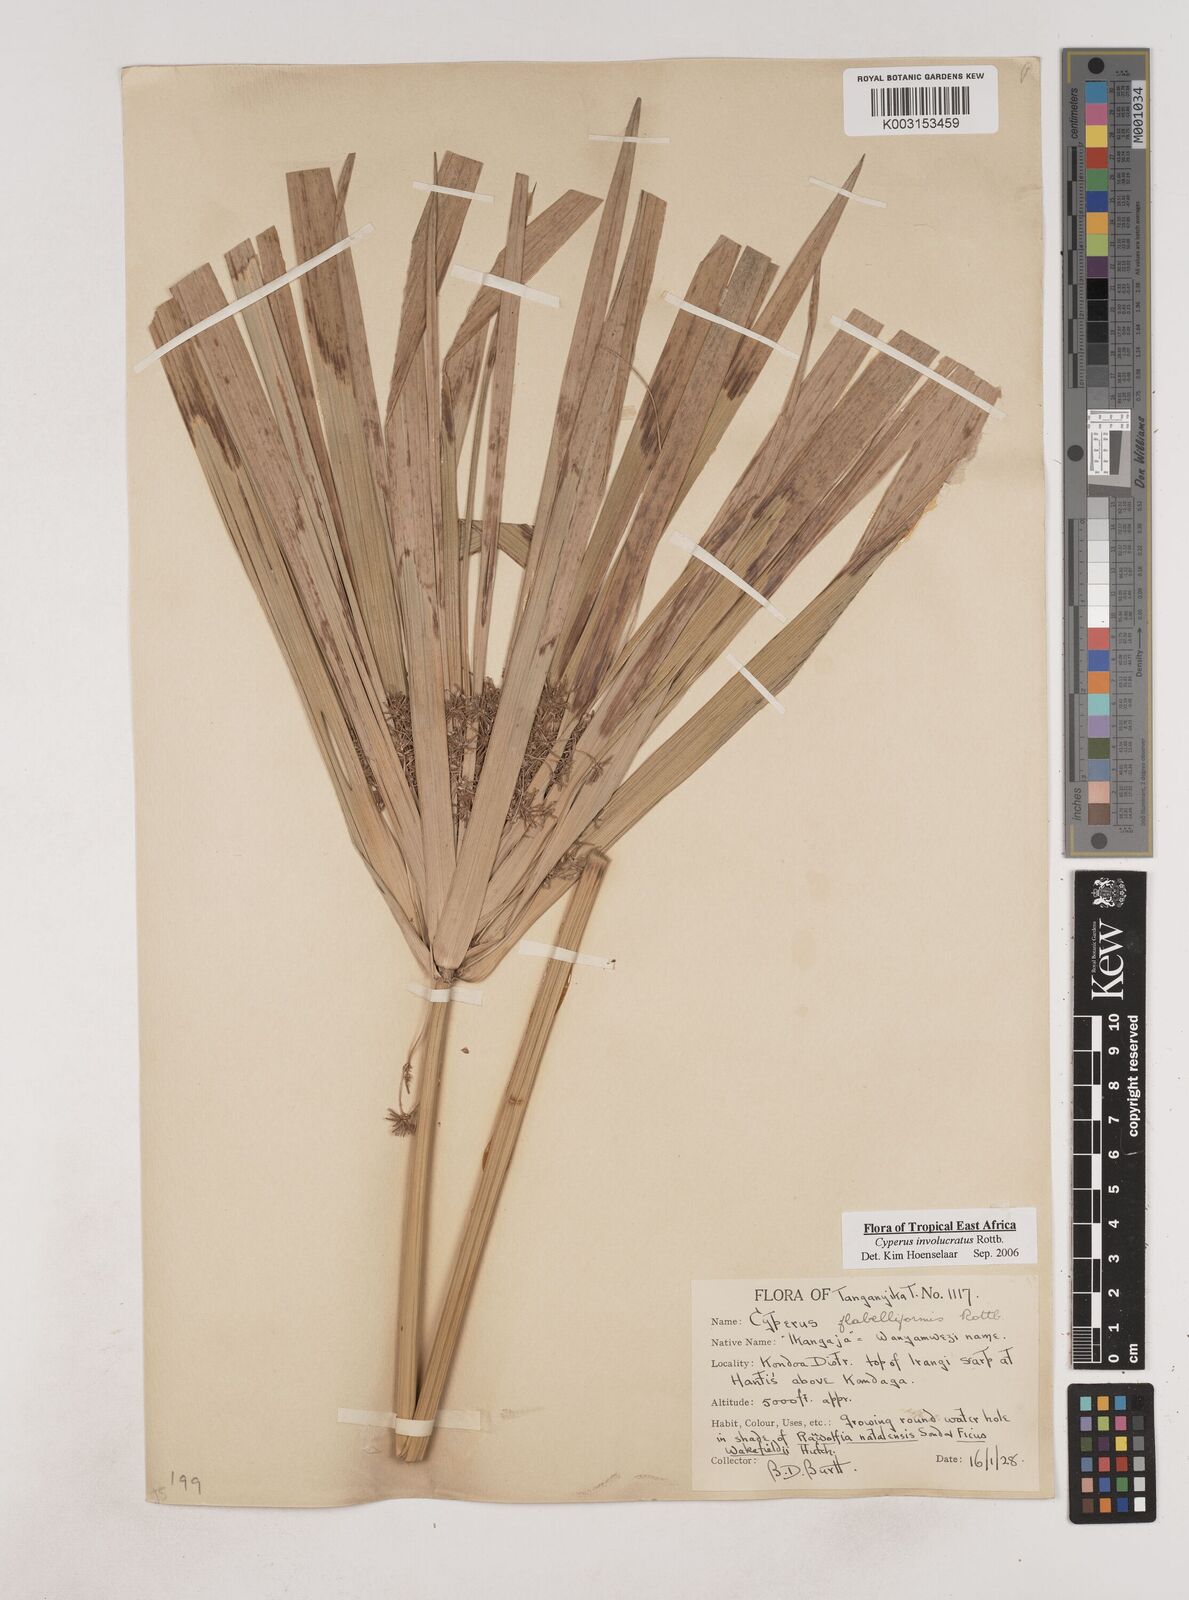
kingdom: Plantae
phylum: Tracheophyta
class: Liliopsida
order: Poales
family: Cyperaceae
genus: Cyperus
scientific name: Cyperus alternifolius
